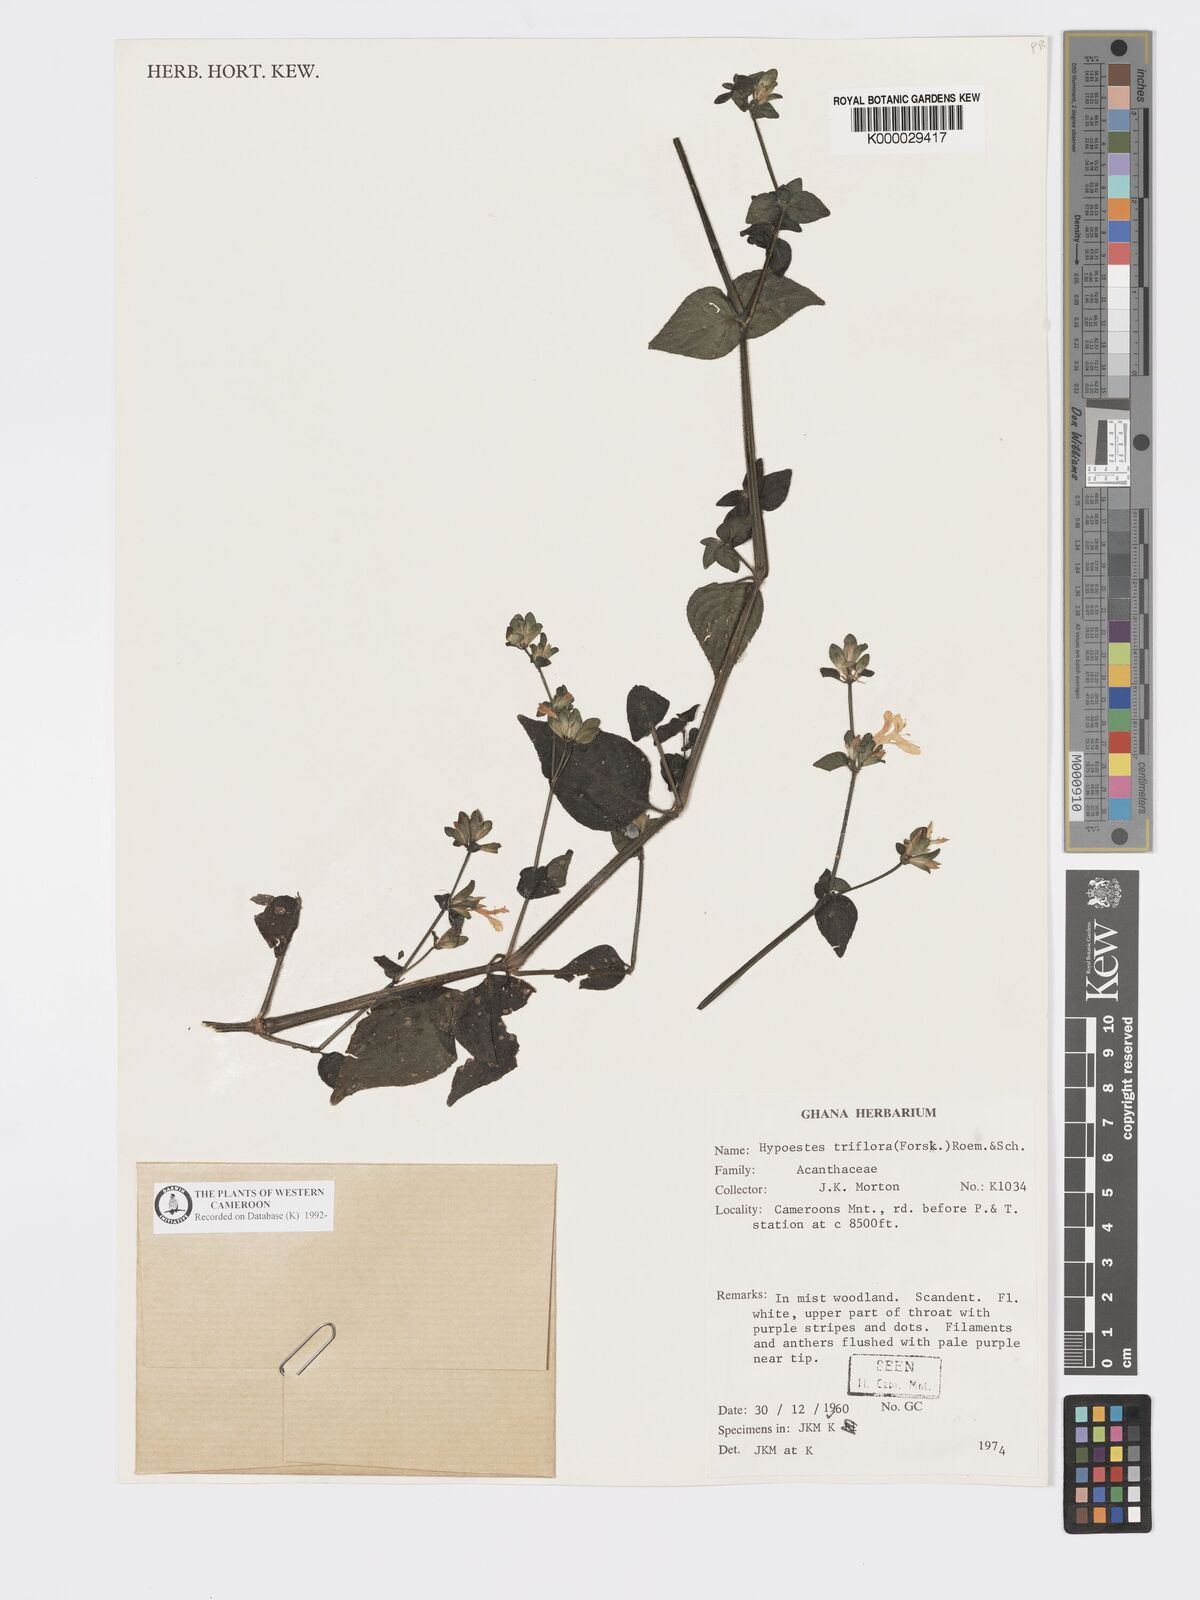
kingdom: Plantae
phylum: Tracheophyta
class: Magnoliopsida
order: Lamiales
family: Acanthaceae
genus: Hypoestes
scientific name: Hypoestes triflora
